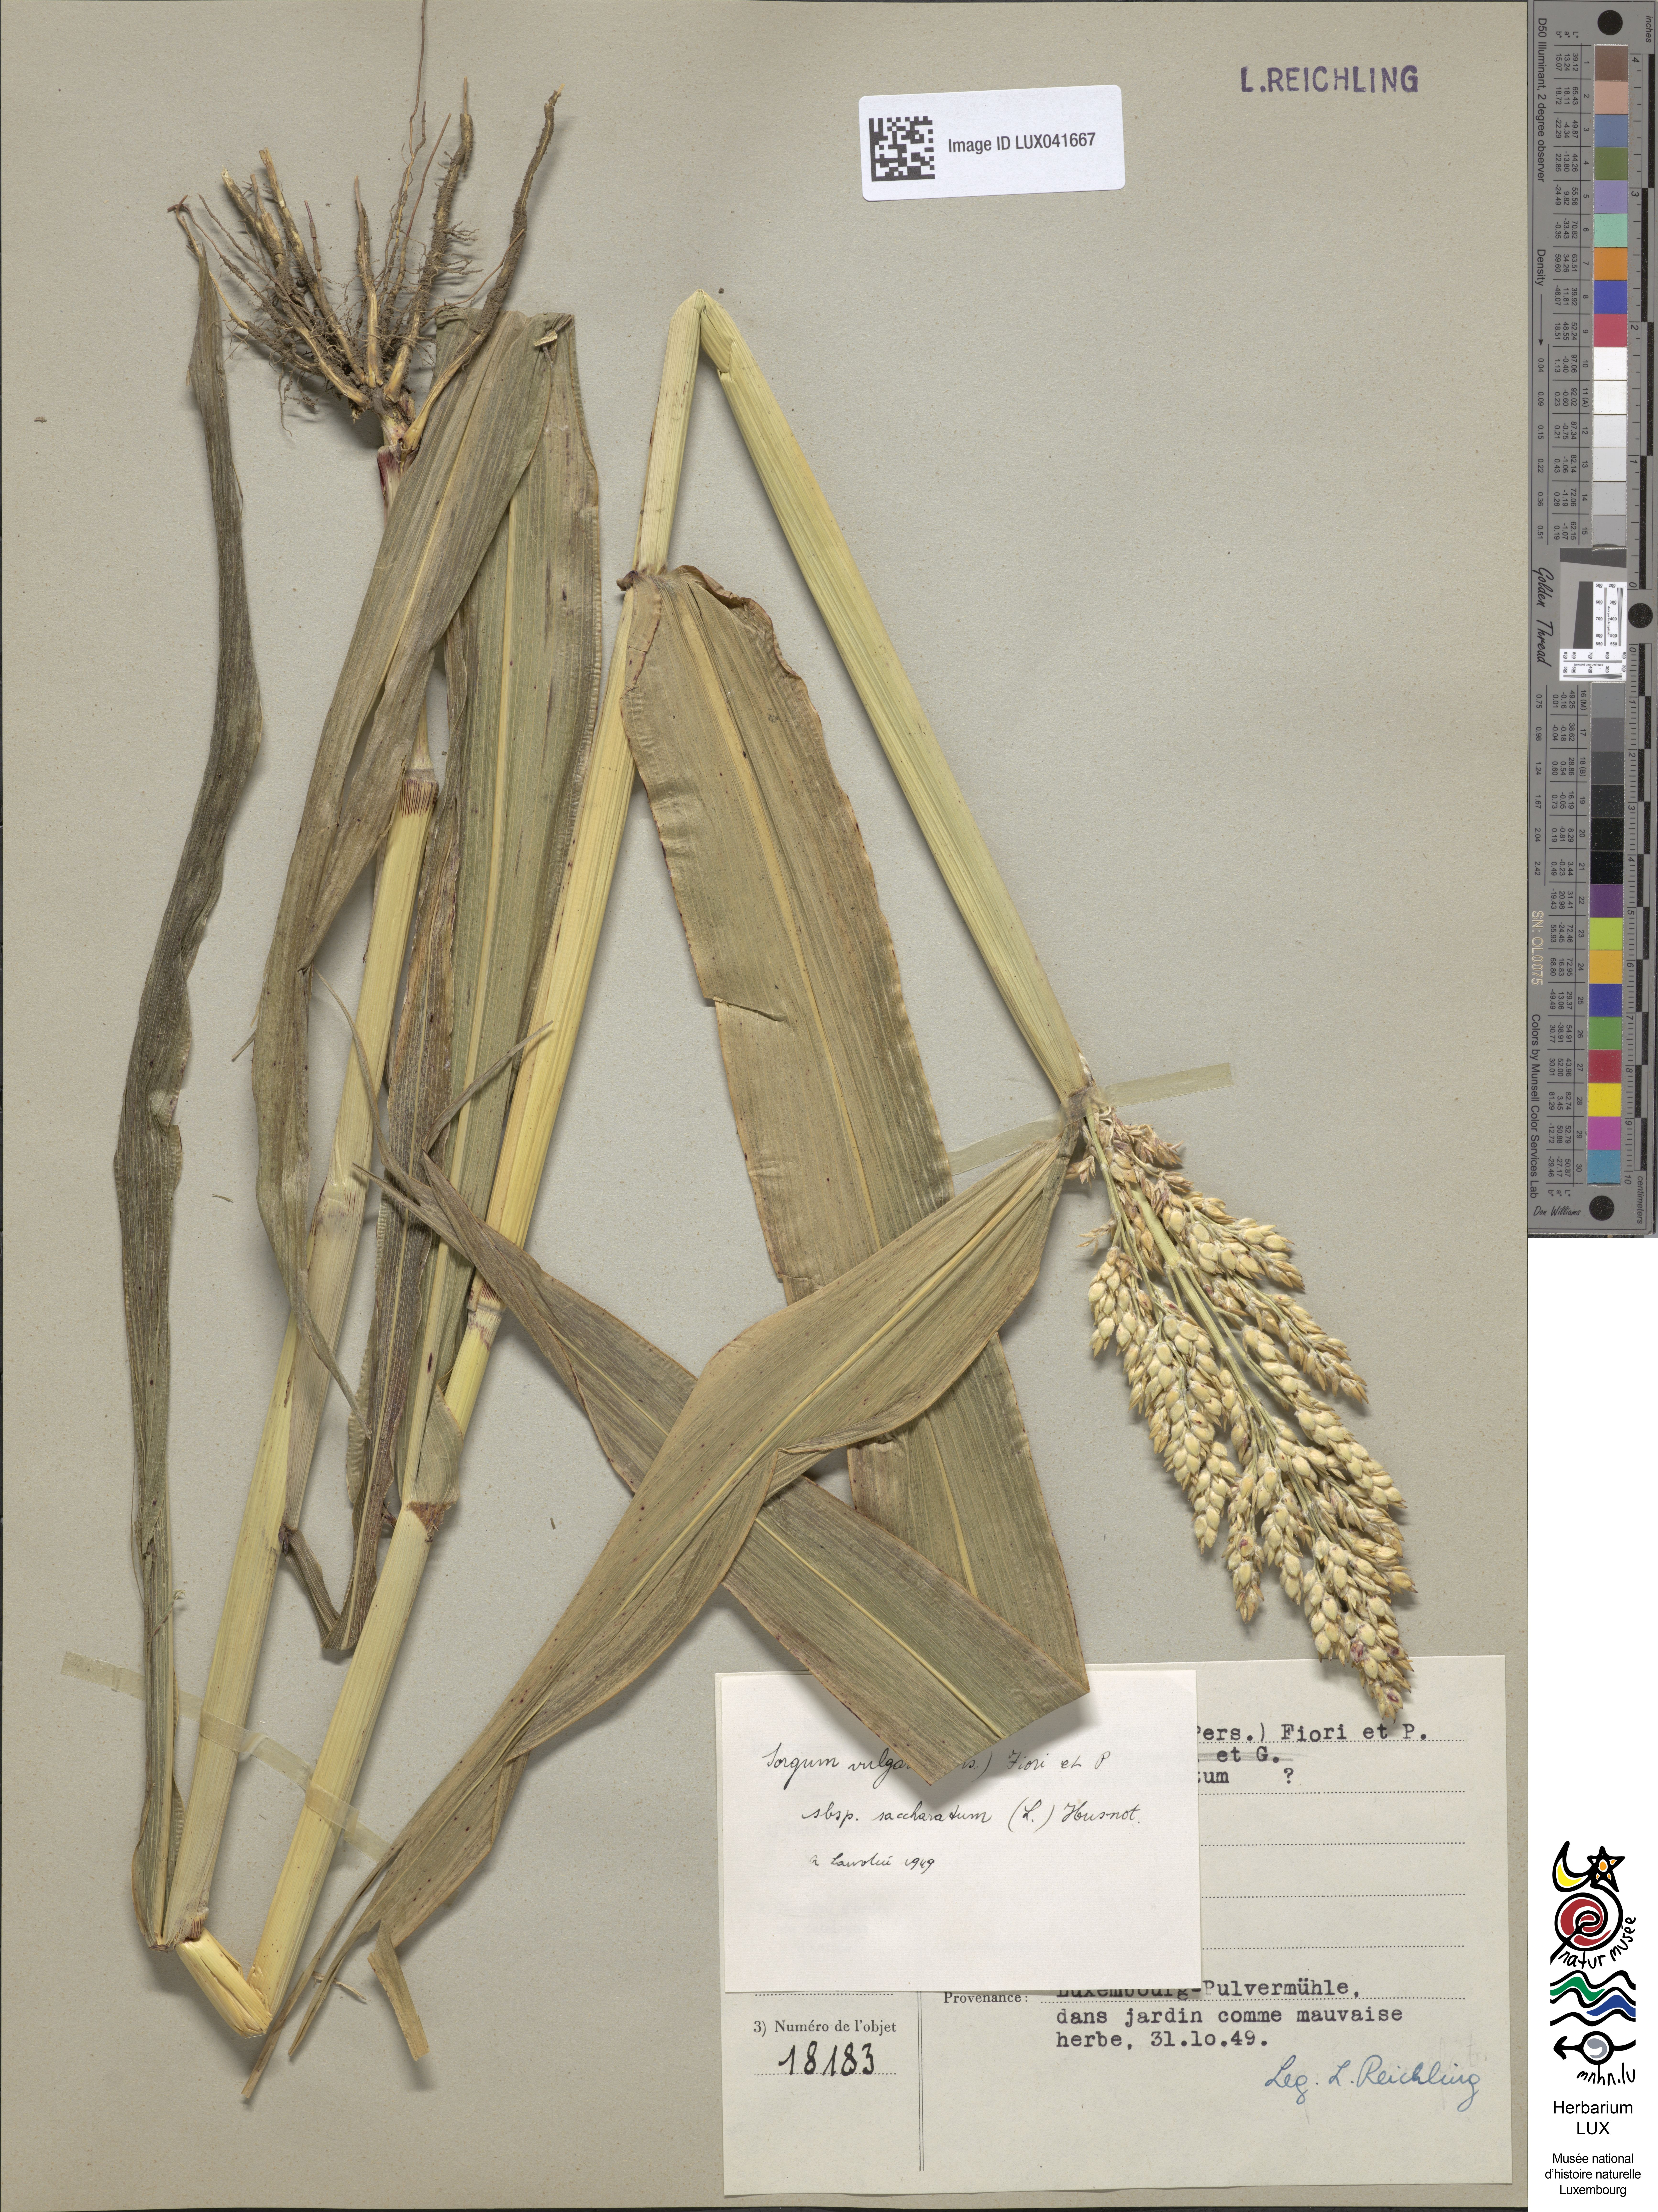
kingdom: Plantae
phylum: Tracheophyta
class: Liliopsida
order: Poales
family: Poaceae
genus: Sorghum
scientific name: Sorghum bicolor
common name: Sorghum
